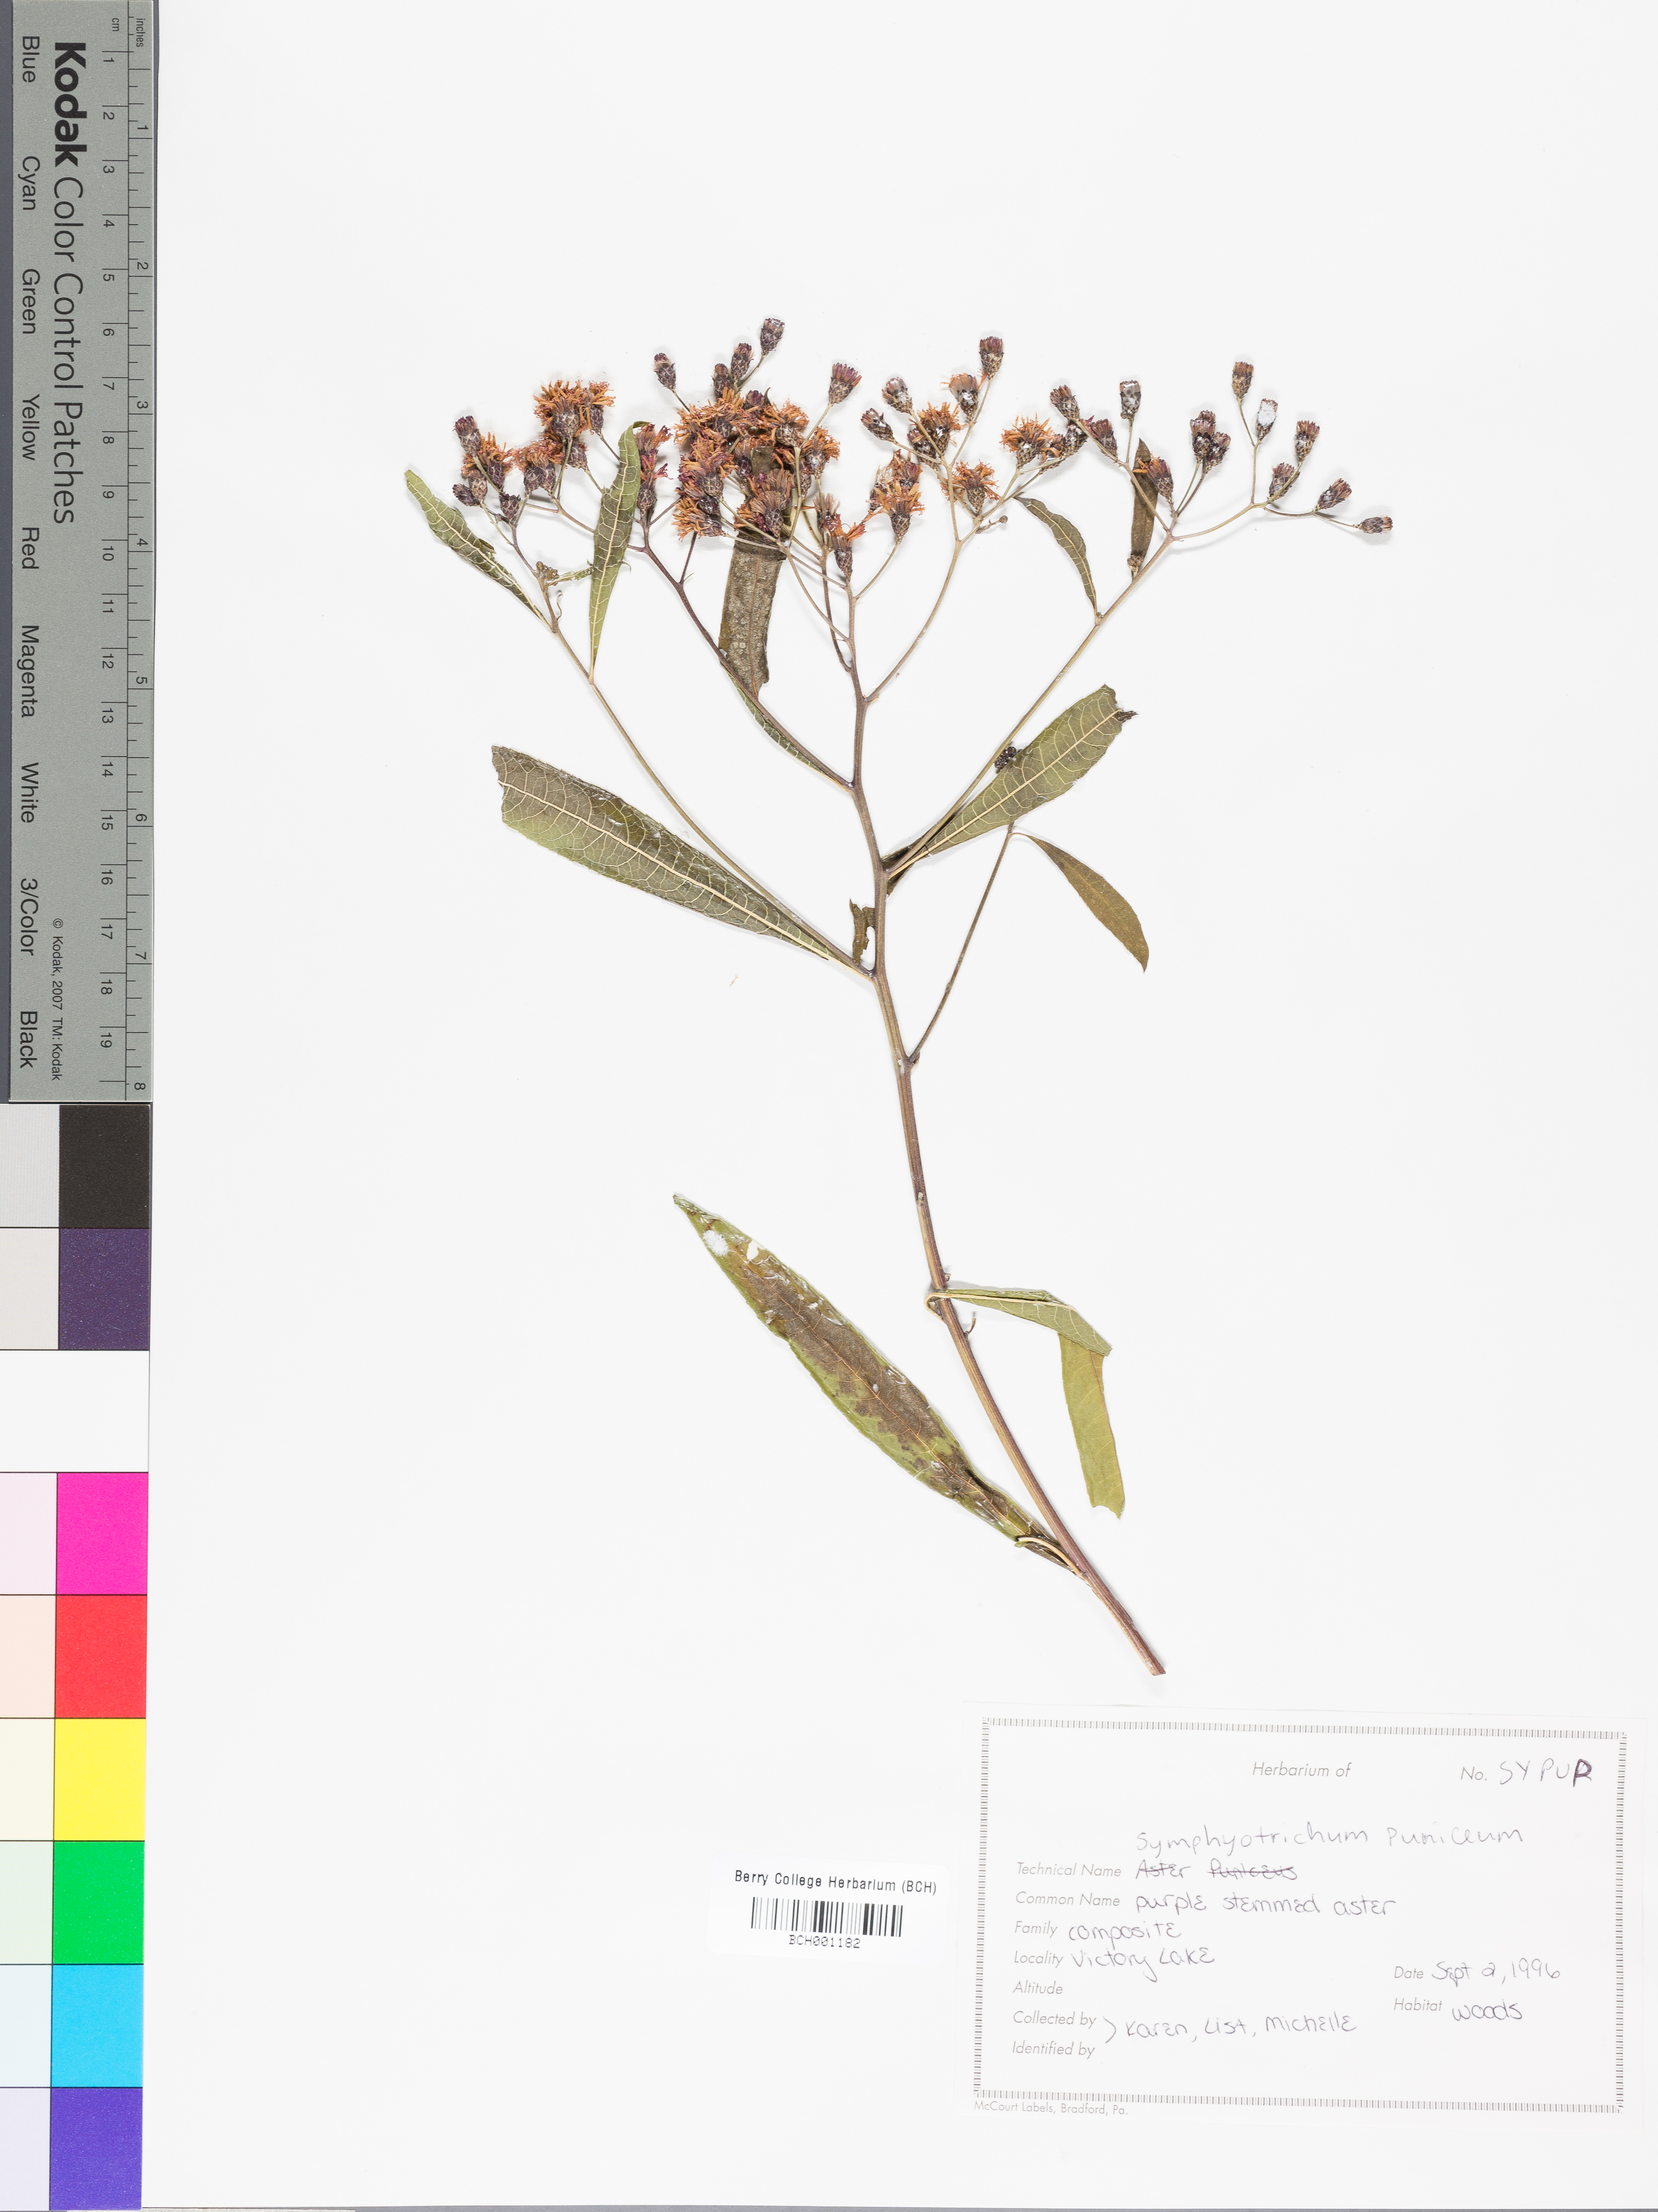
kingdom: Plantae
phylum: Tracheophyta
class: Magnoliopsida
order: Asterales
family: Asteraceae
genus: Symphyotrichum
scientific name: Symphyotrichum puniceum
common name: Bog aster
